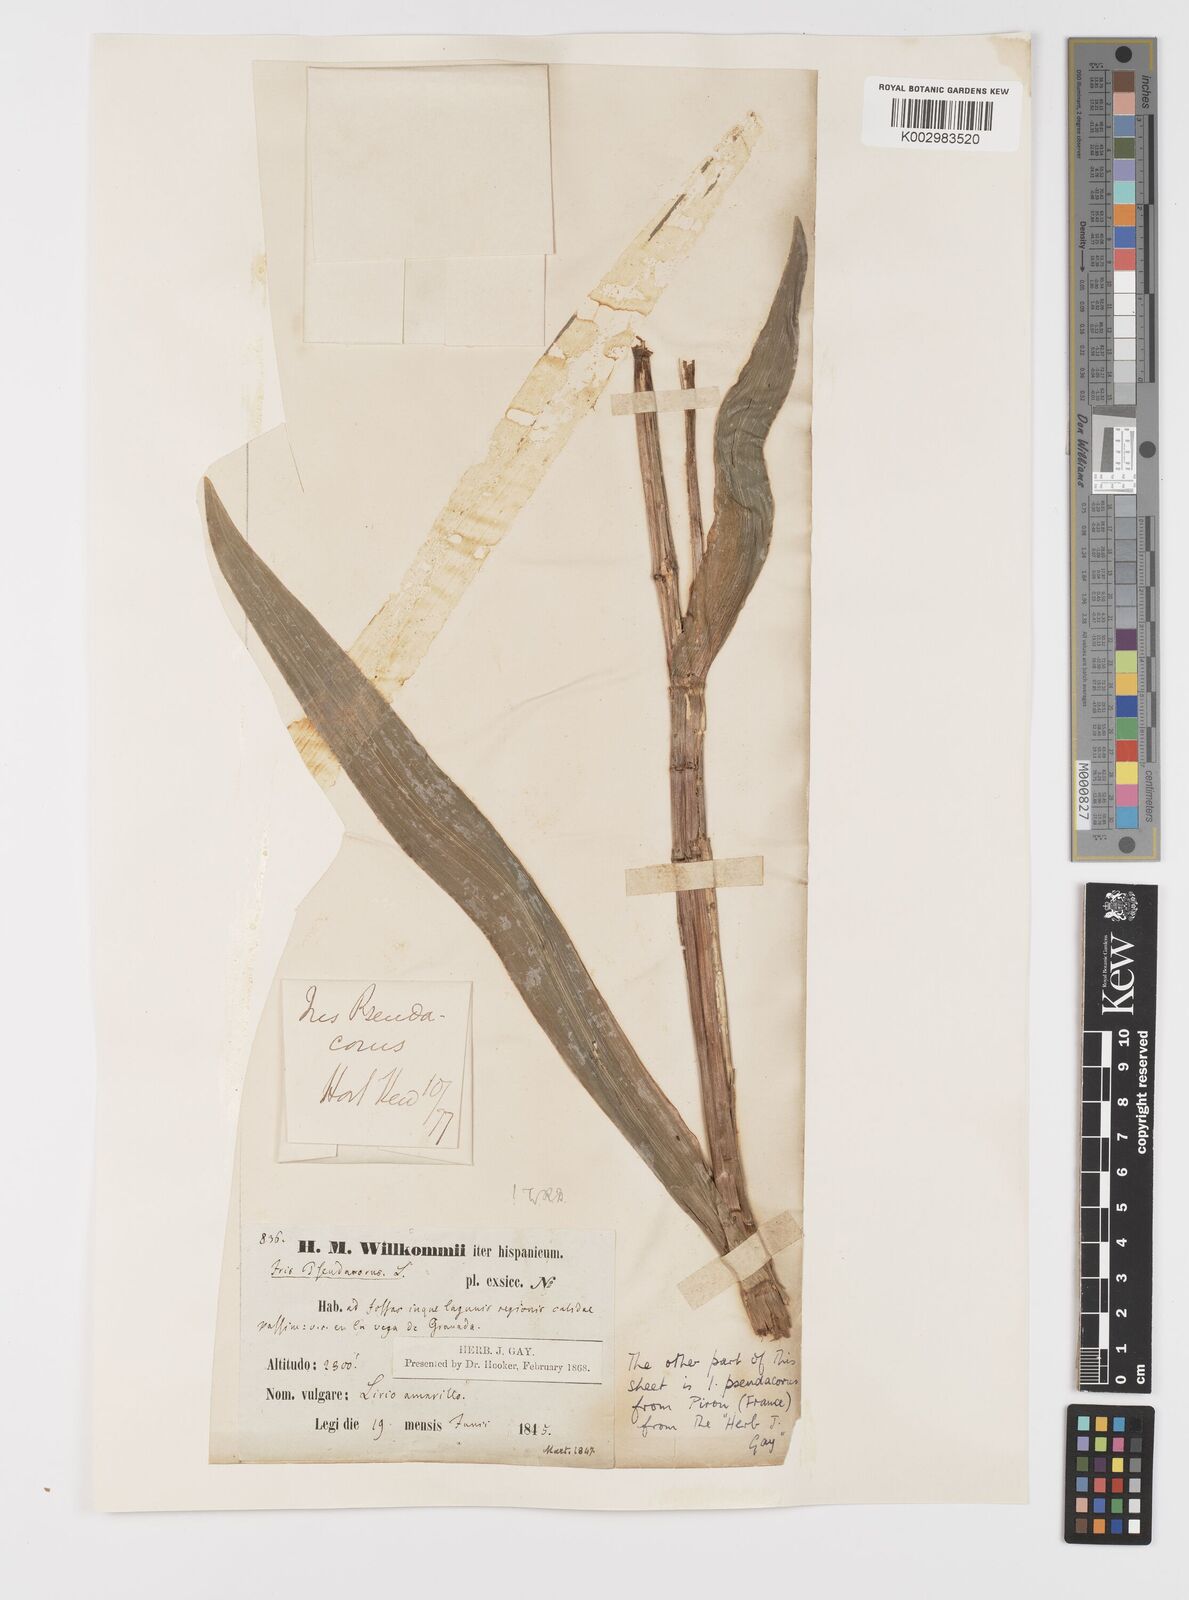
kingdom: Plantae
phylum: Tracheophyta
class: Liliopsida
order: Asparagales
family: Iridaceae
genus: Iris
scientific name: Iris pseudacorus
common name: Yellow flag
